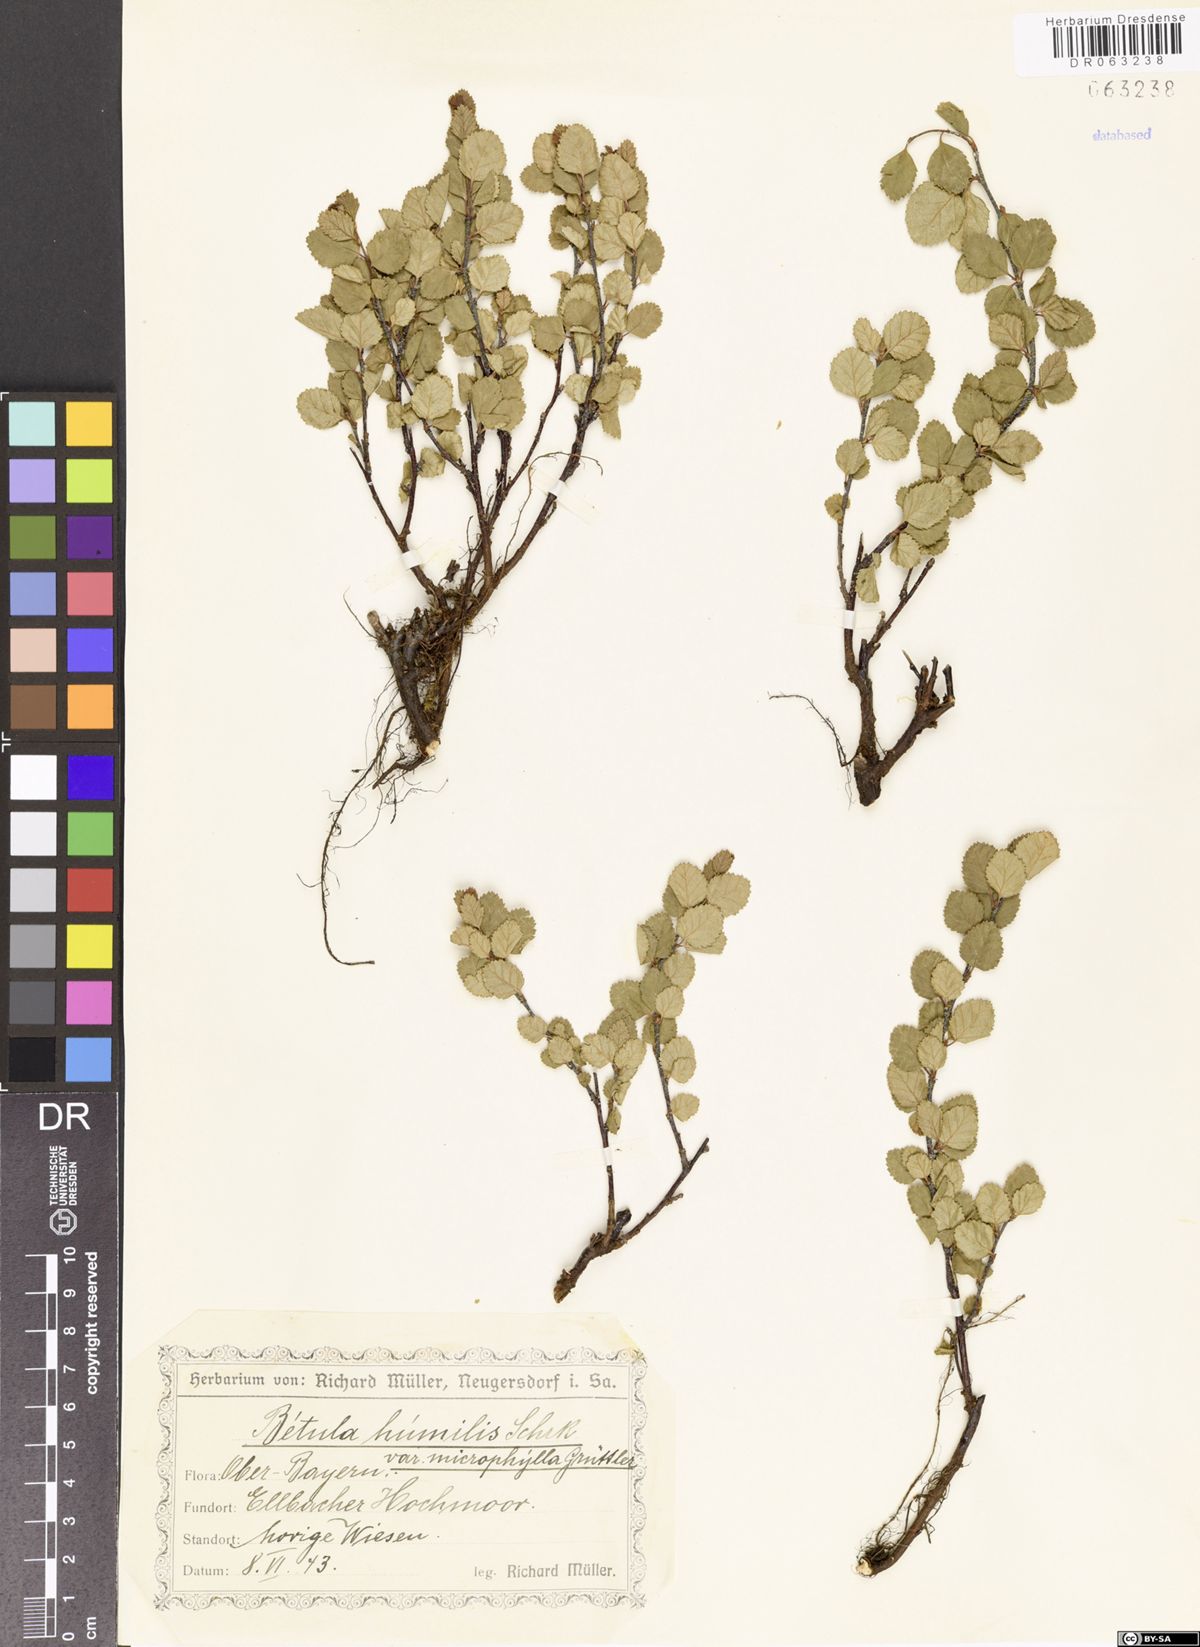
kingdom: Plantae
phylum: Tracheophyta
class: Magnoliopsida
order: Fagales
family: Betulaceae
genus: Betula
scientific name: Betula humilis
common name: Shrubby birch
